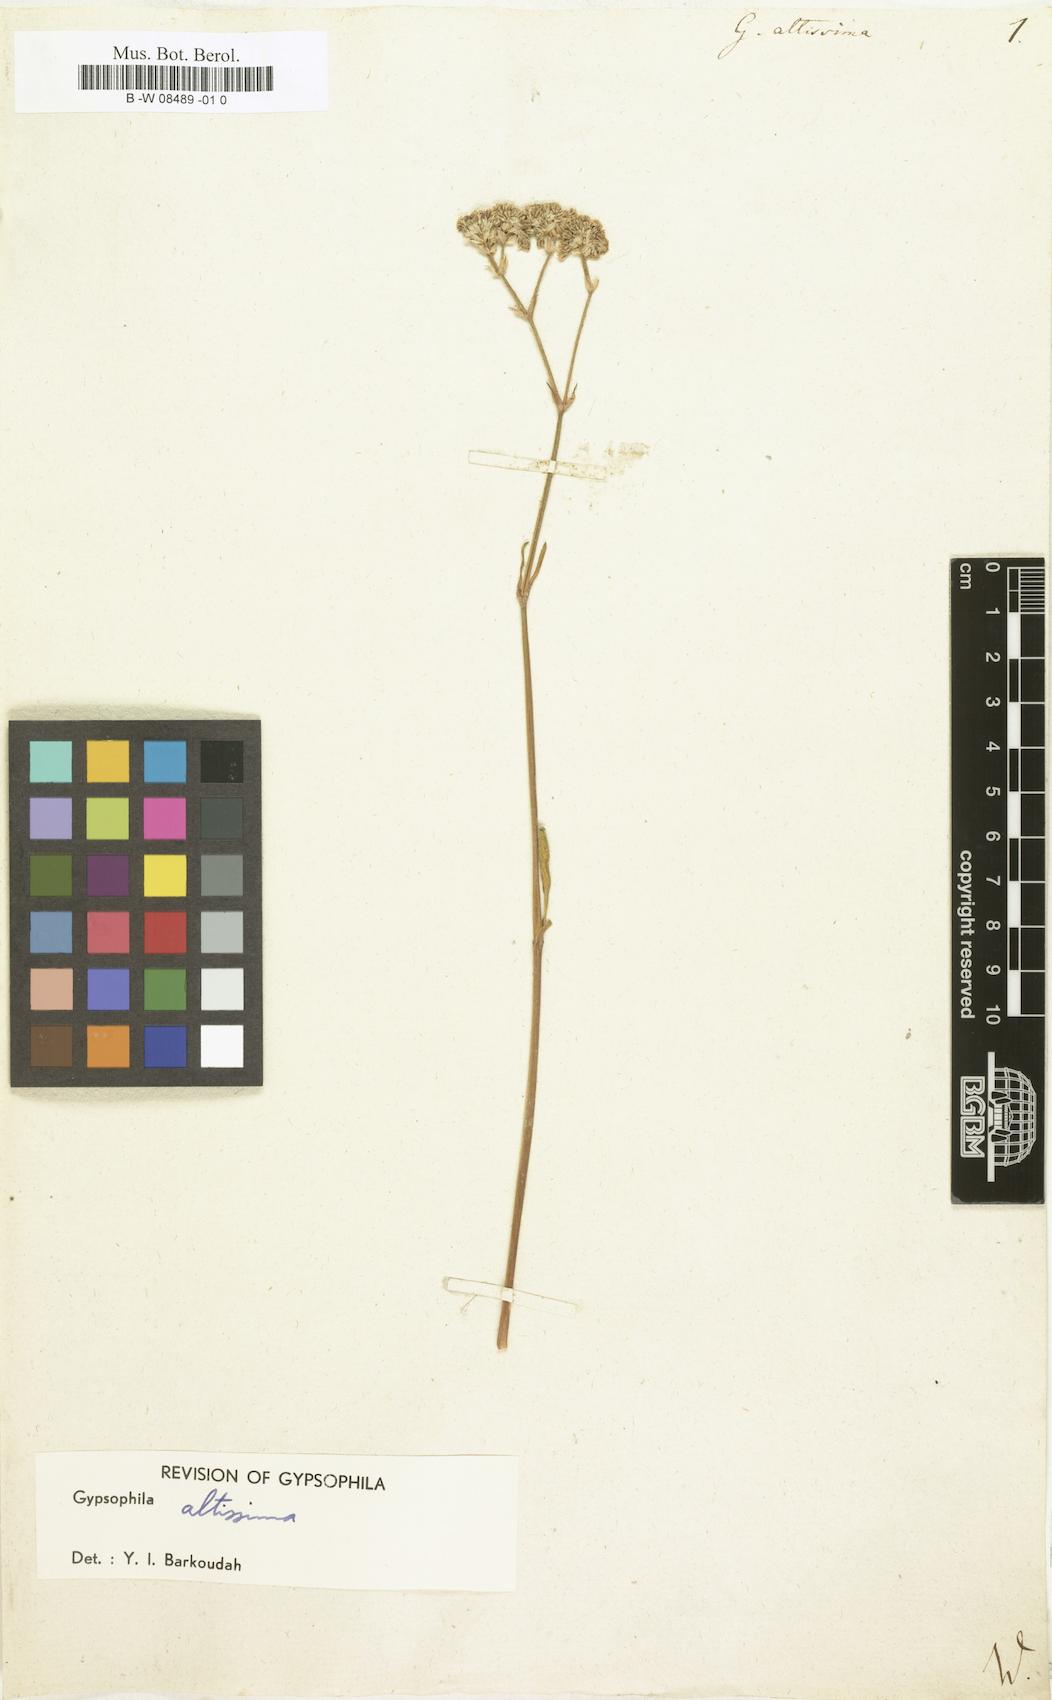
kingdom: Plantae
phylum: Tracheophyta
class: Magnoliopsida
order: Caryophyllales
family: Caryophyllaceae
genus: Gypsophila
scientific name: Gypsophila altissima
